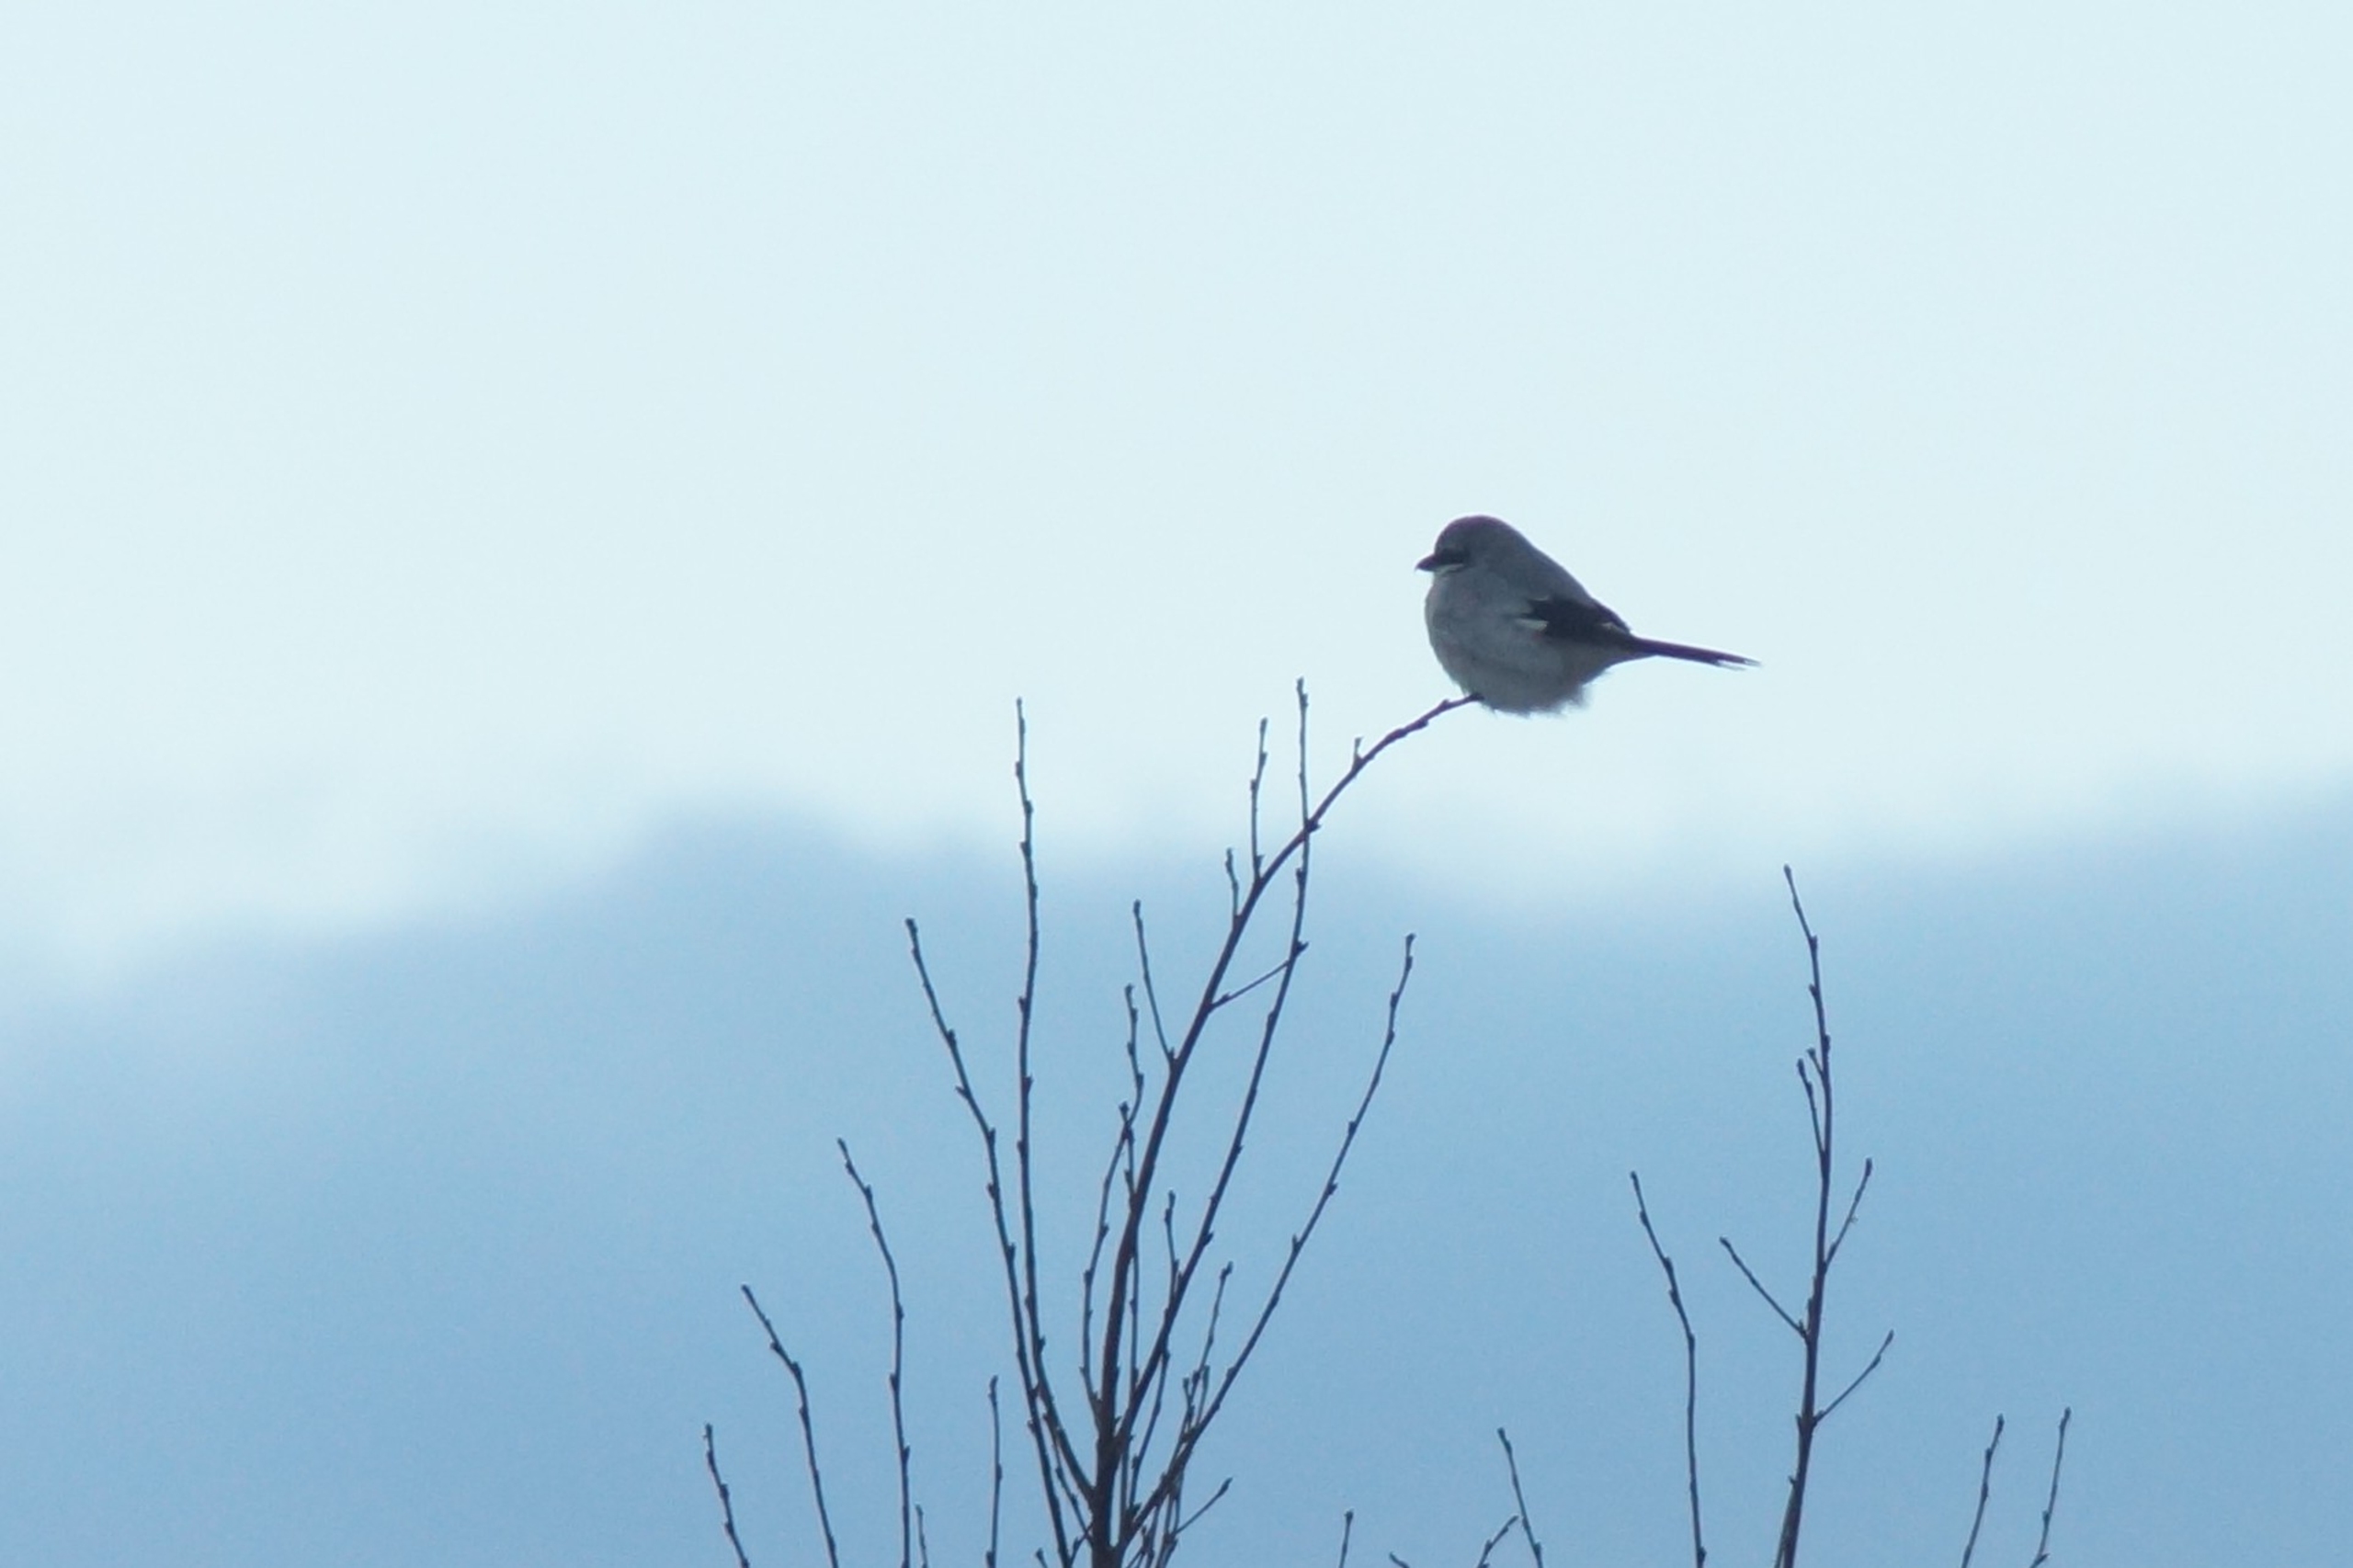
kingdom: Animalia
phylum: Chordata
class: Aves
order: Passeriformes
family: Laniidae
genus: Lanius
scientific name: Lanius excubitor
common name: Stor tornskade
